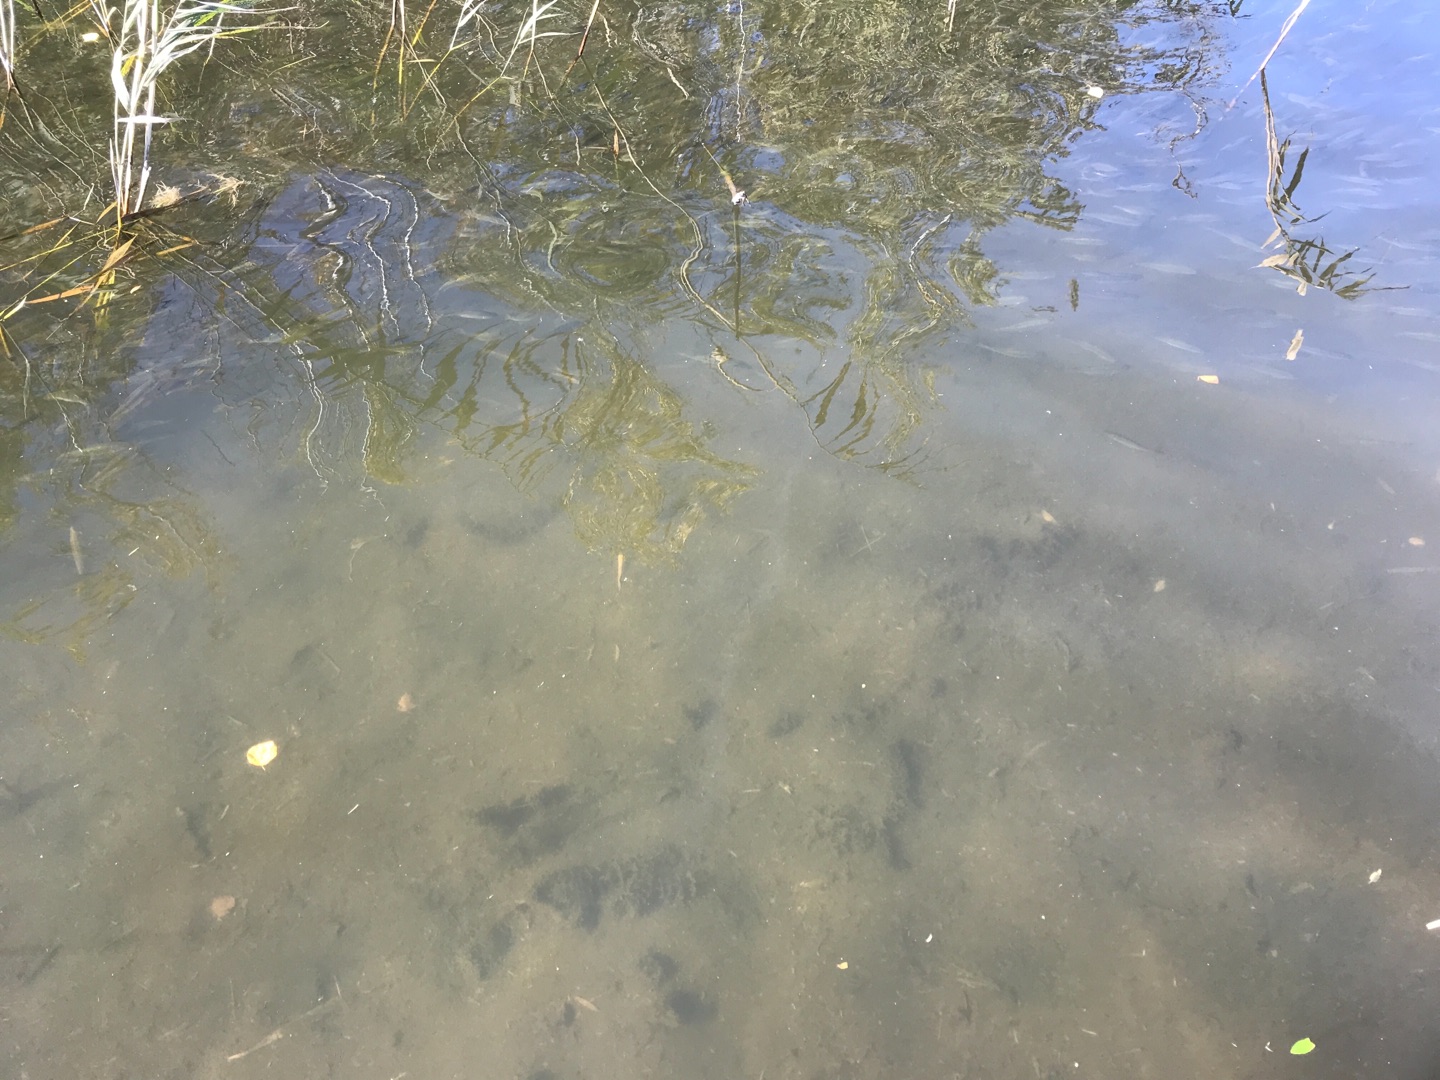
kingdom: Animalia
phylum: Chordata
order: Cypriniformes
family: Cyprinidae
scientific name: Cyprinidae
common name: Karpefamilien
